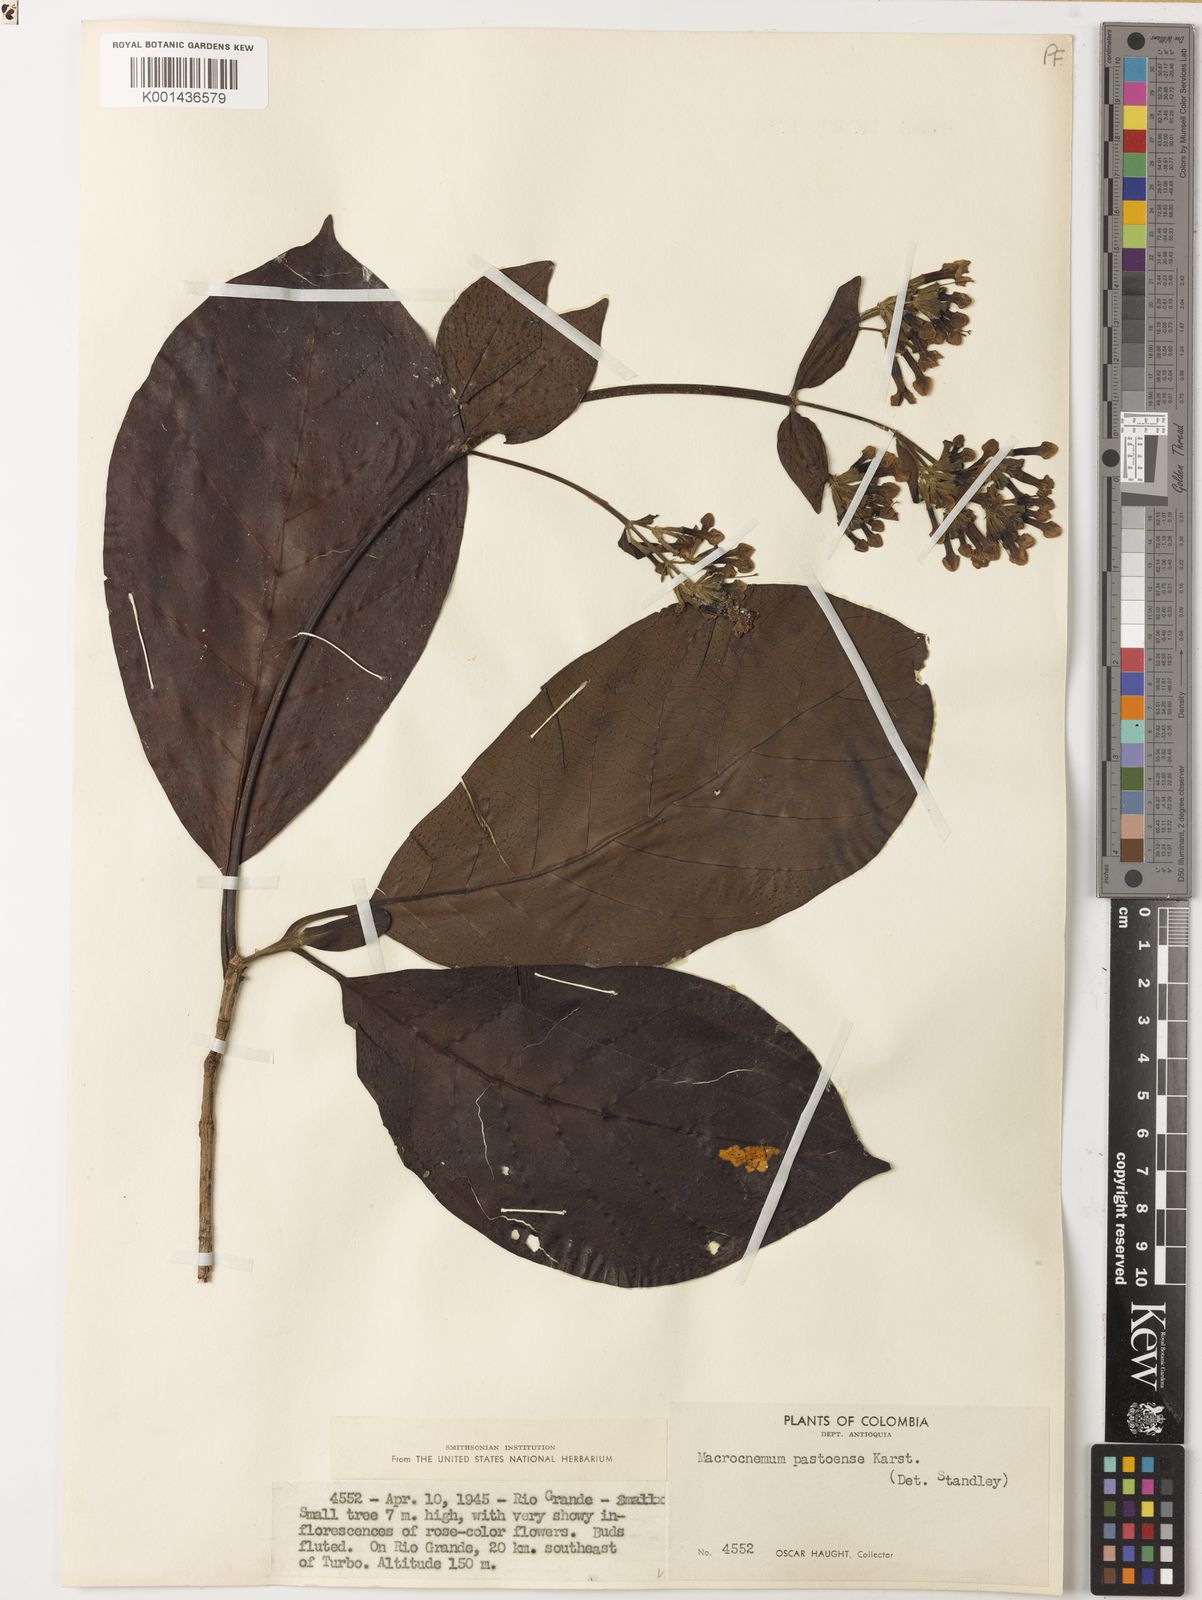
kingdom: Plantae
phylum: Tracheophyta
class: Magnoliopsida
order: Gentianales
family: Rubiaceae
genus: Macrocnemum
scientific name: Macrocnemum roseum
